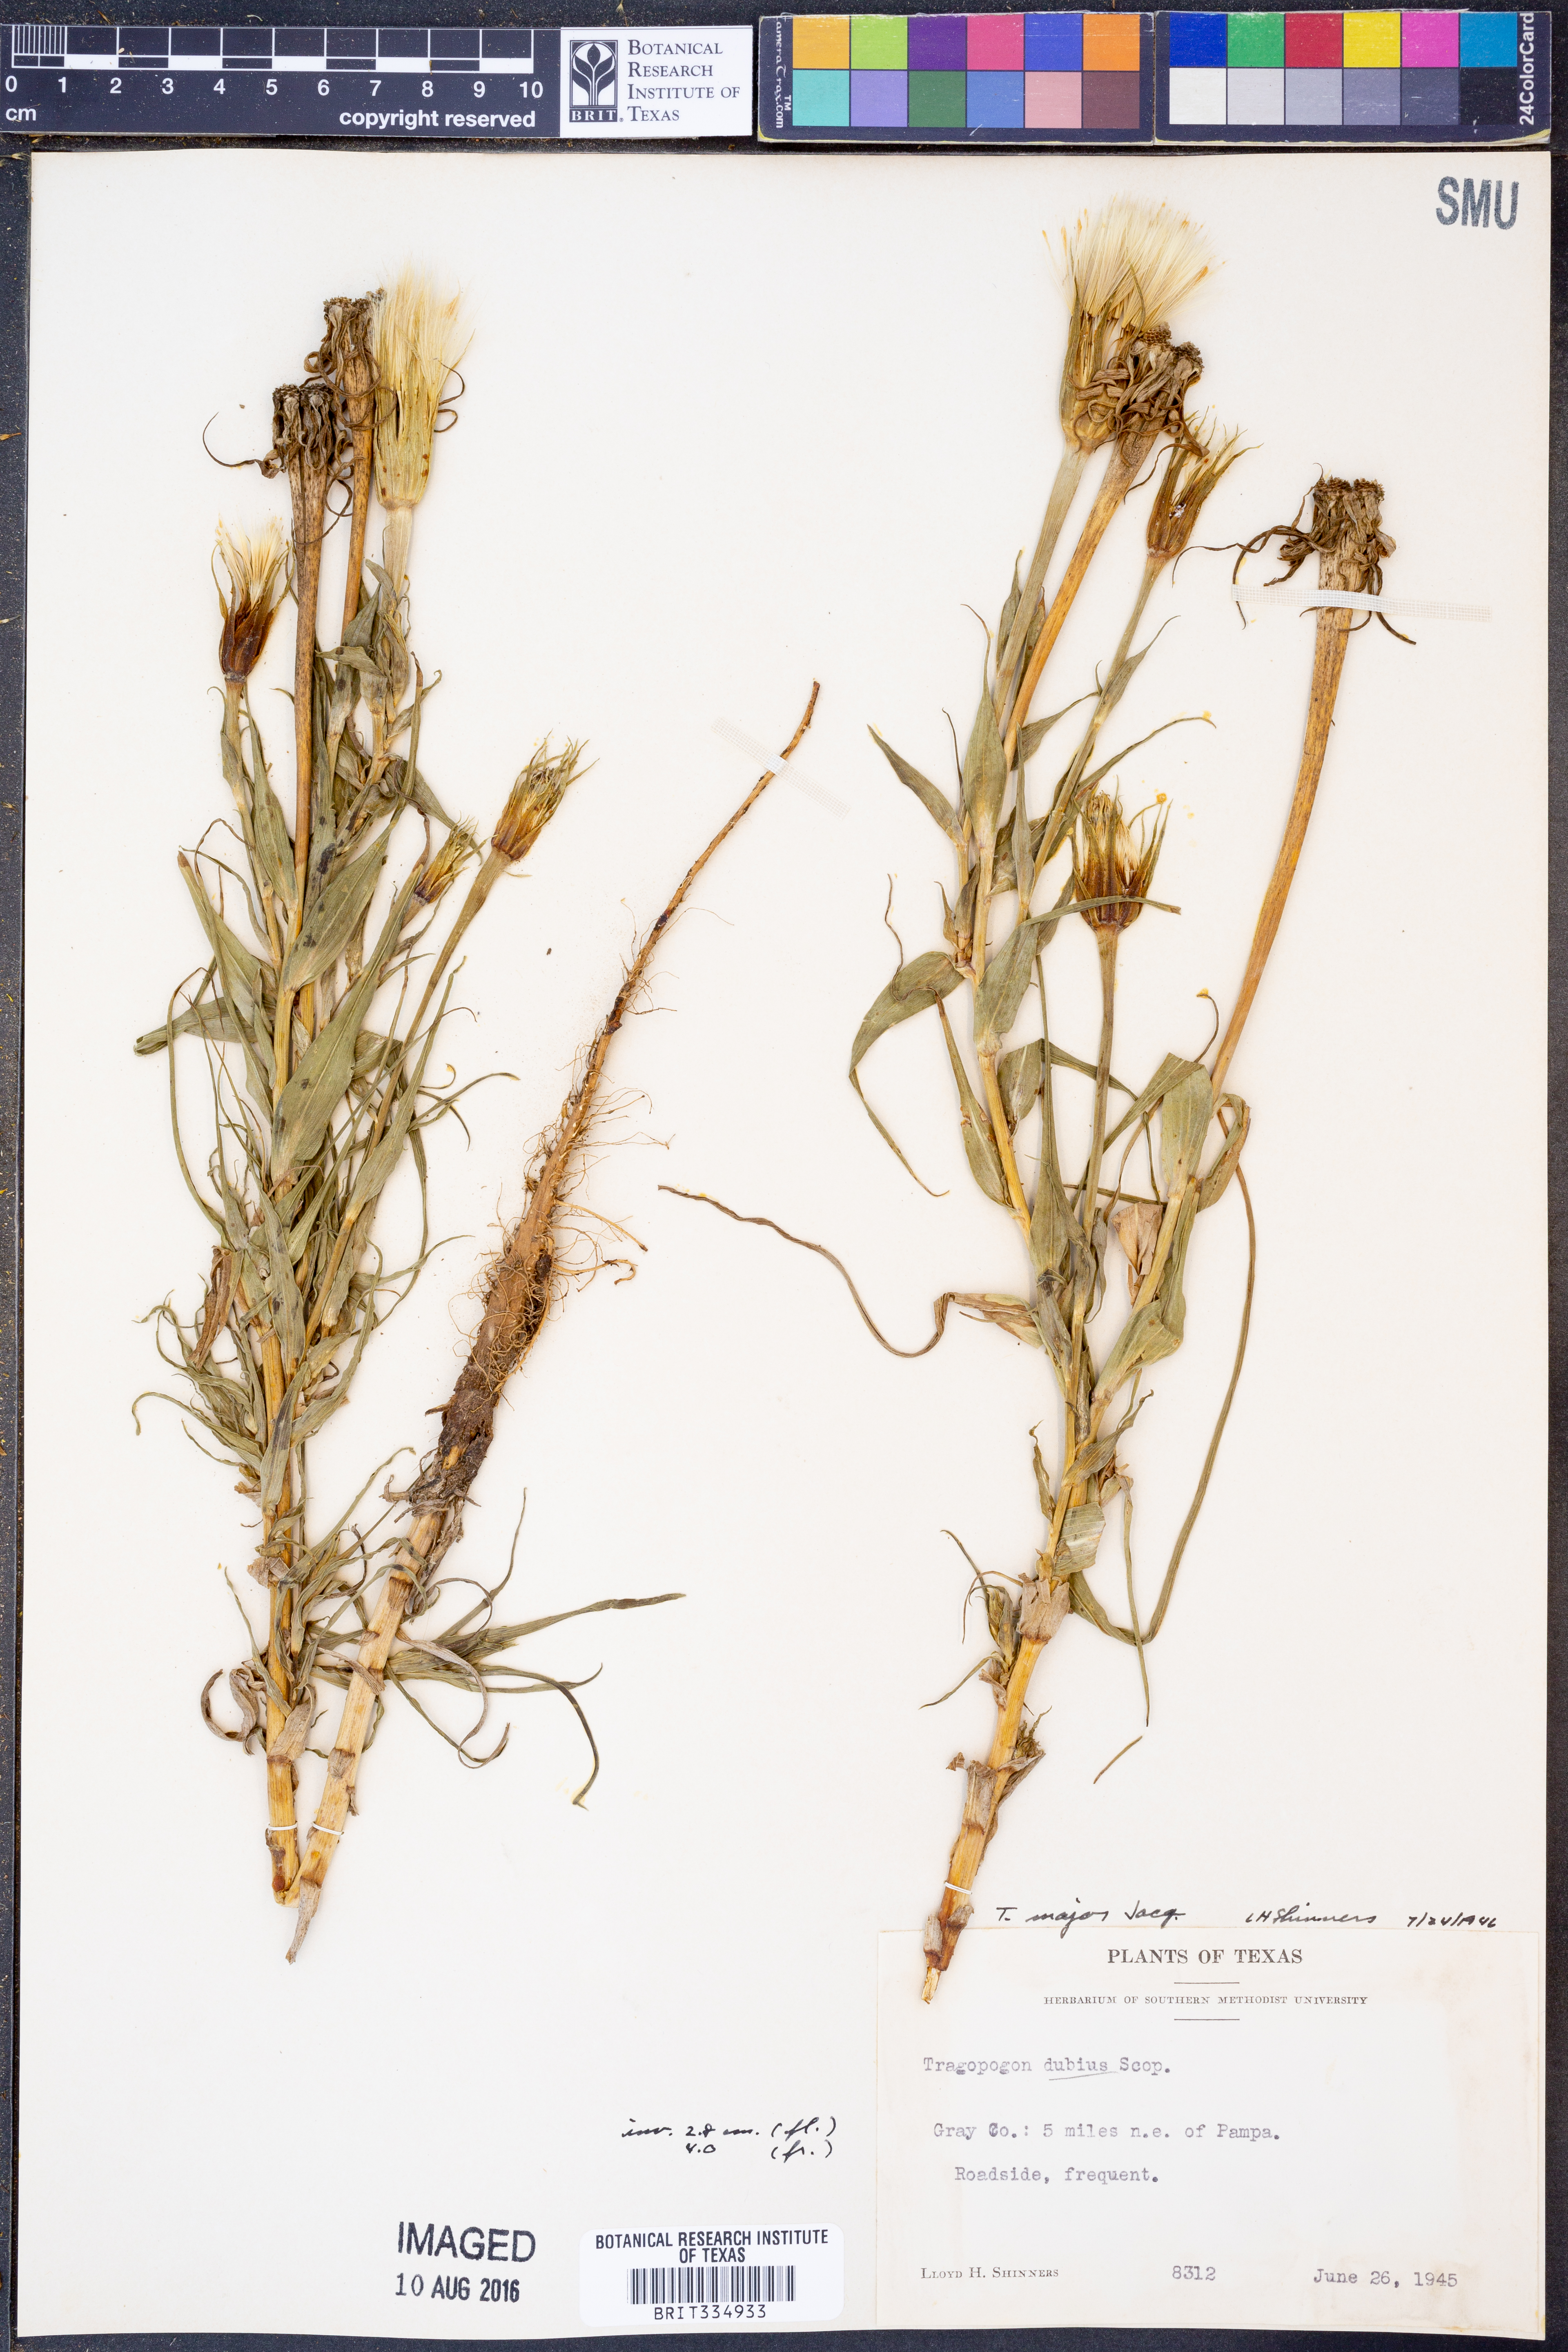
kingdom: Plantae
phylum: Tracheophyta
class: Magnoliopsida
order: Asterales
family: Asteraceae
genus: Tragopogon
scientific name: Tragopogon dubius
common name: Yellow salsify
